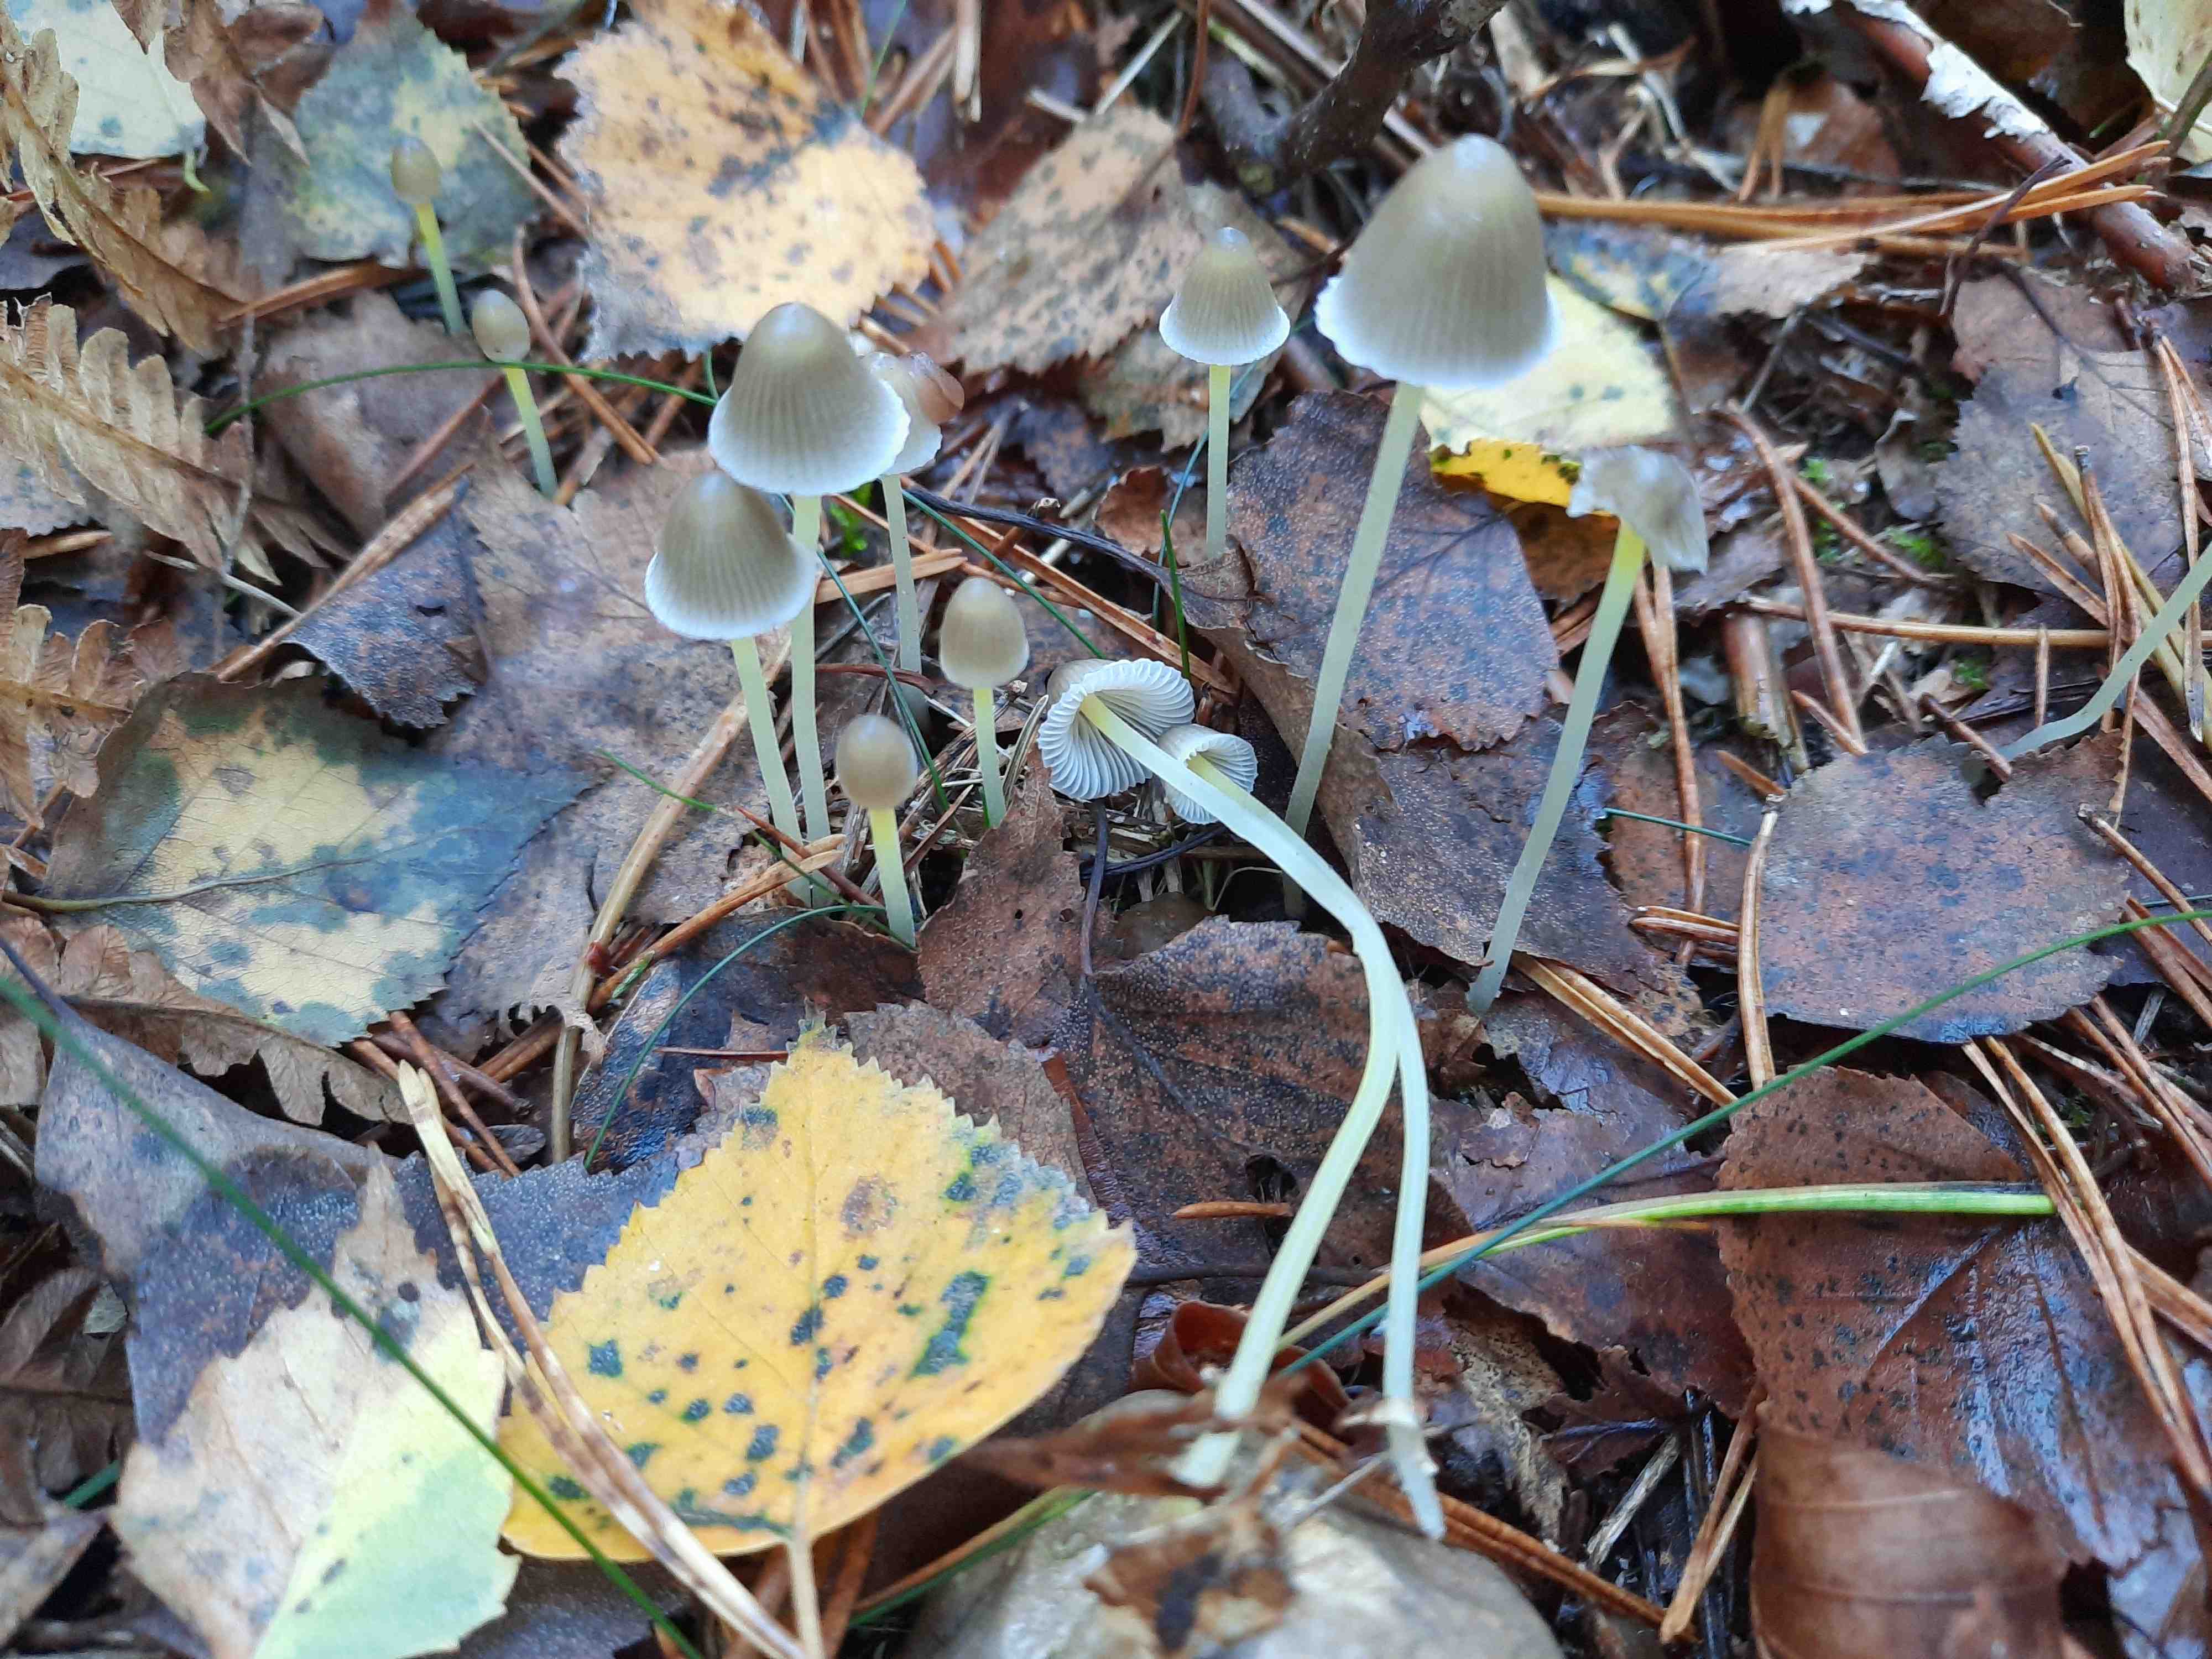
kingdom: Fungi
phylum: Basidiomycota
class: Agaricomycetes
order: Agaricales
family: Mycenaceae
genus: Mycena
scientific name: Mycena epipterygia
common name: gulstokket huesvamp
